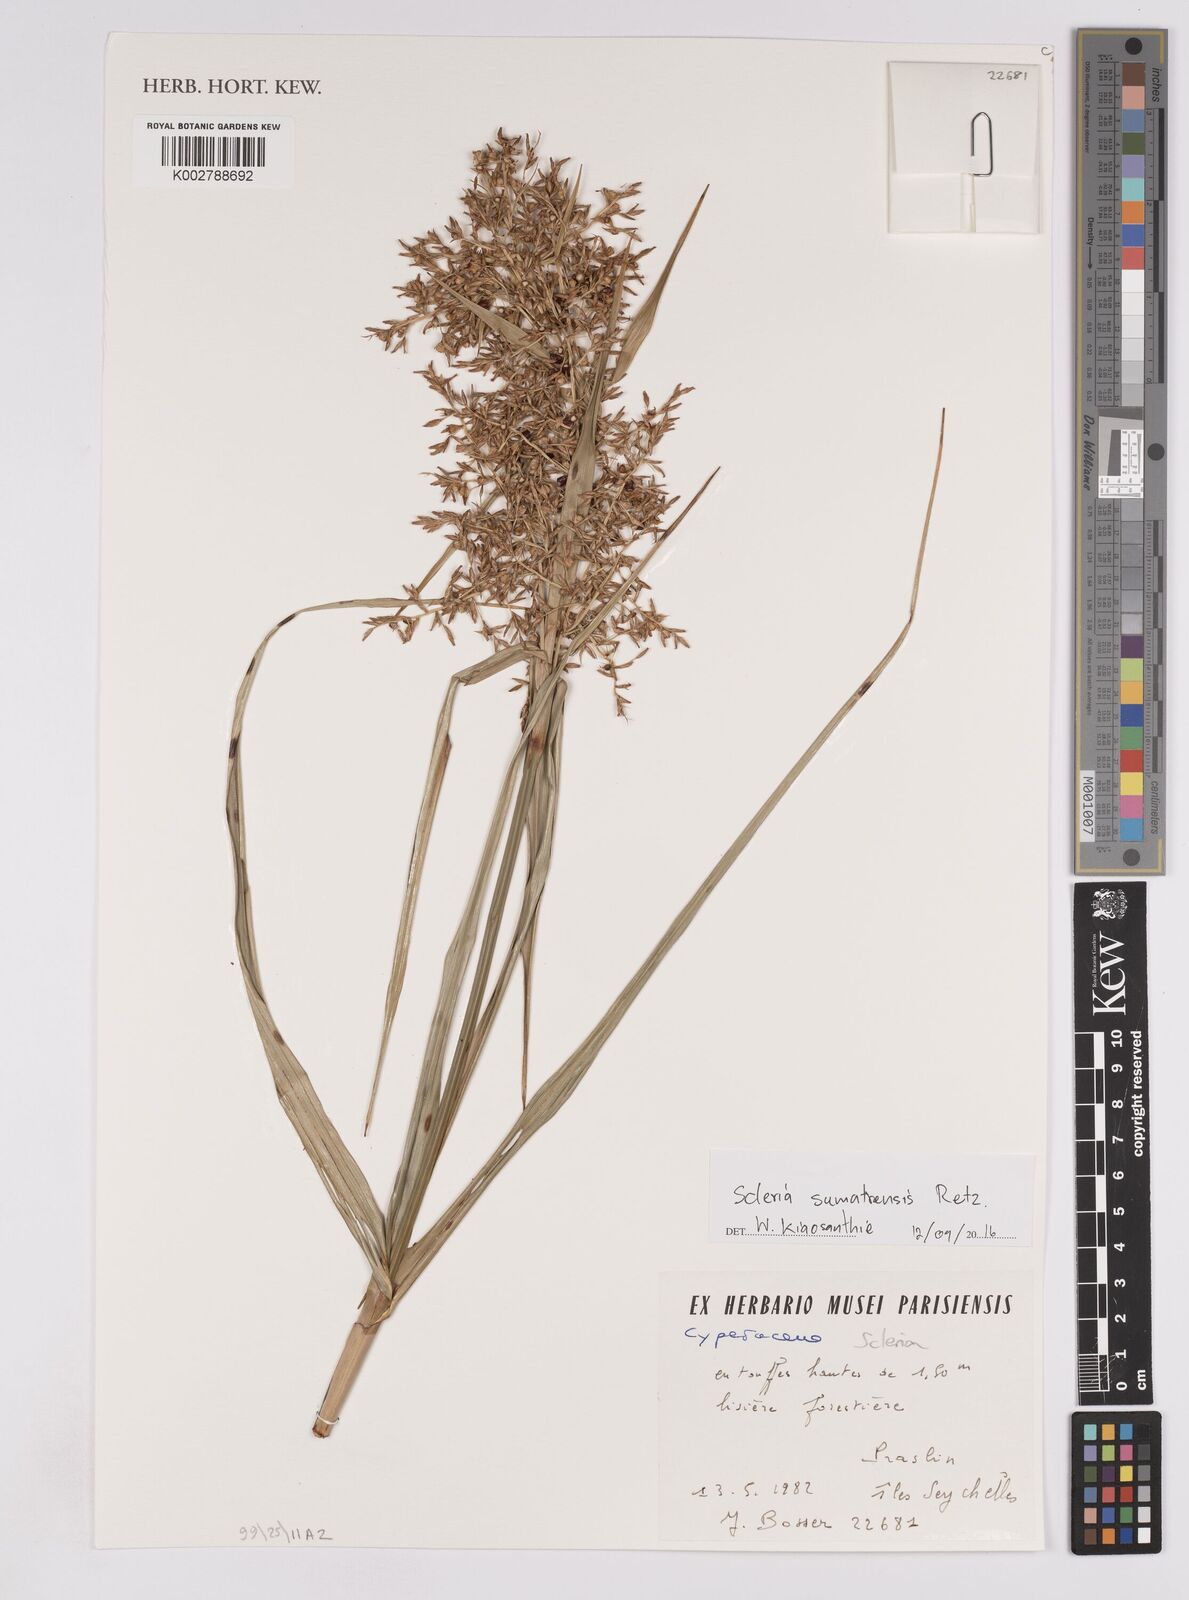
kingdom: Plantae
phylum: Tracheophyta
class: Liliopsida
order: Poales
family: Cyperaceae
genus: Scleria
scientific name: Scleria sumatrensis
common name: Sumatran scleria
